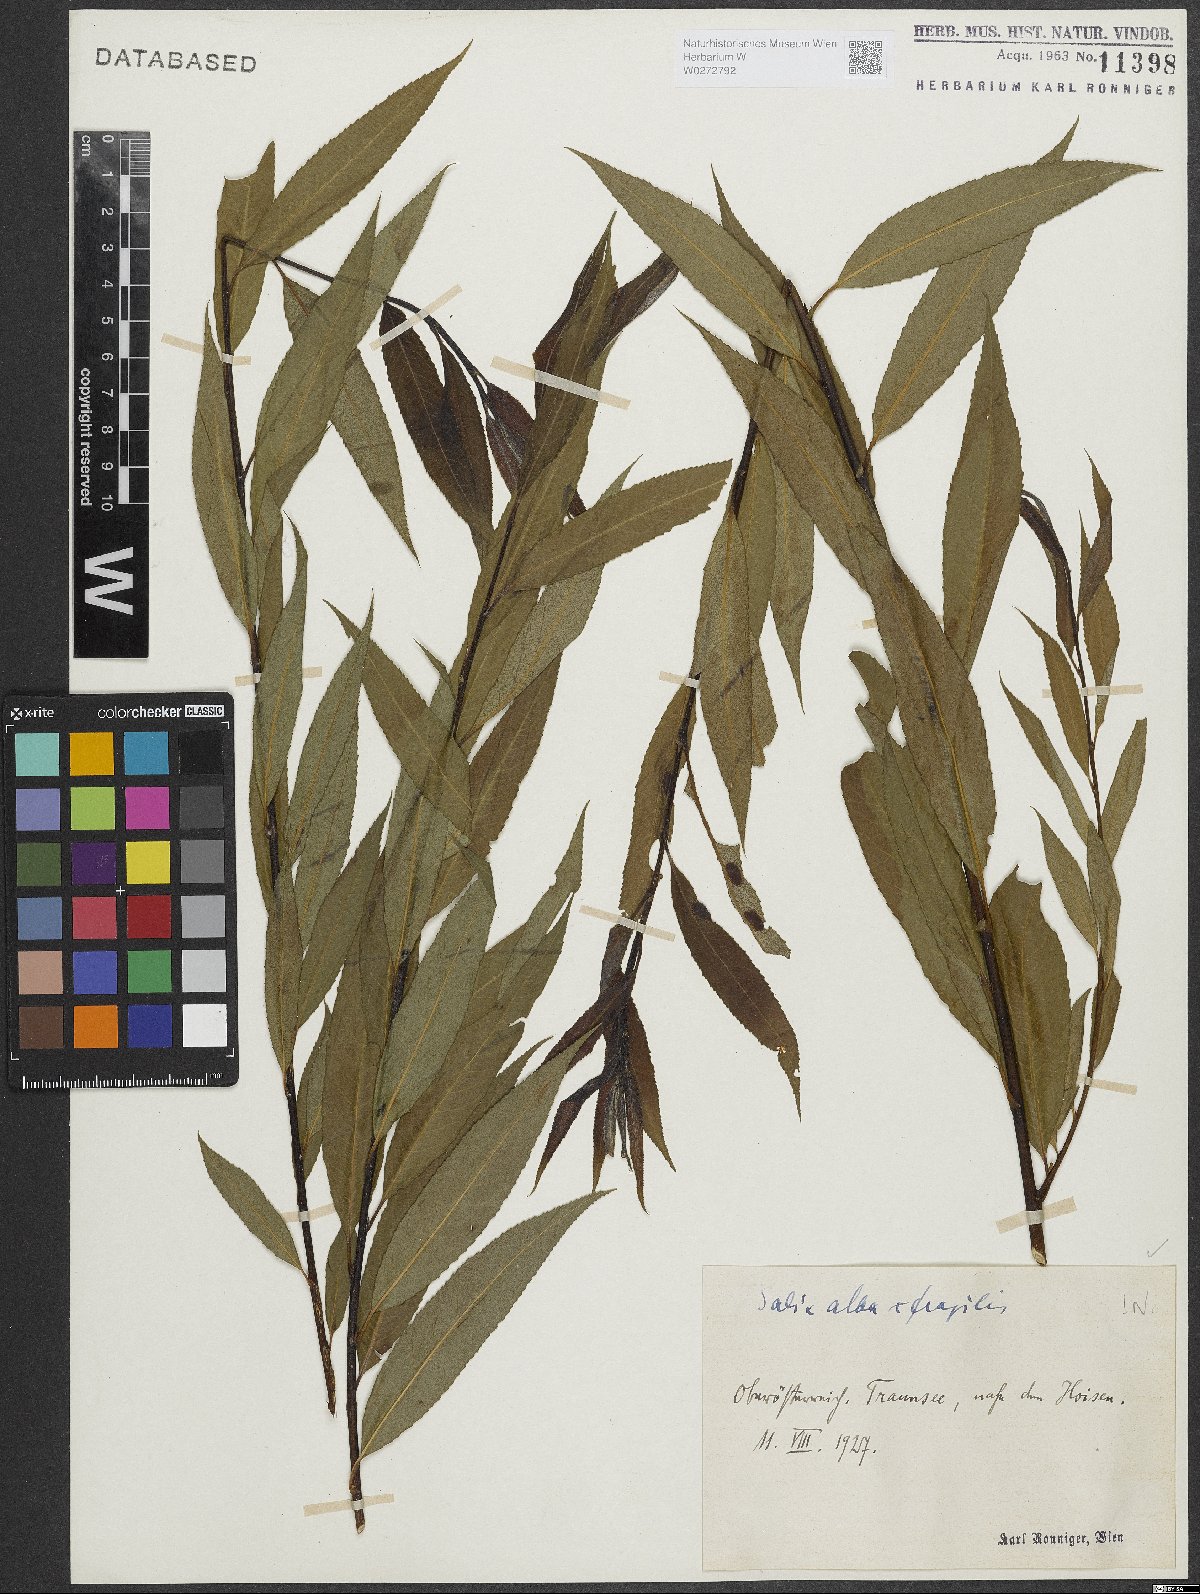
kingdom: Plantae
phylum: Tracheophyta
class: Magnoliopsida
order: Malpighiales
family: Salicaceae
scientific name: Salicaceae
